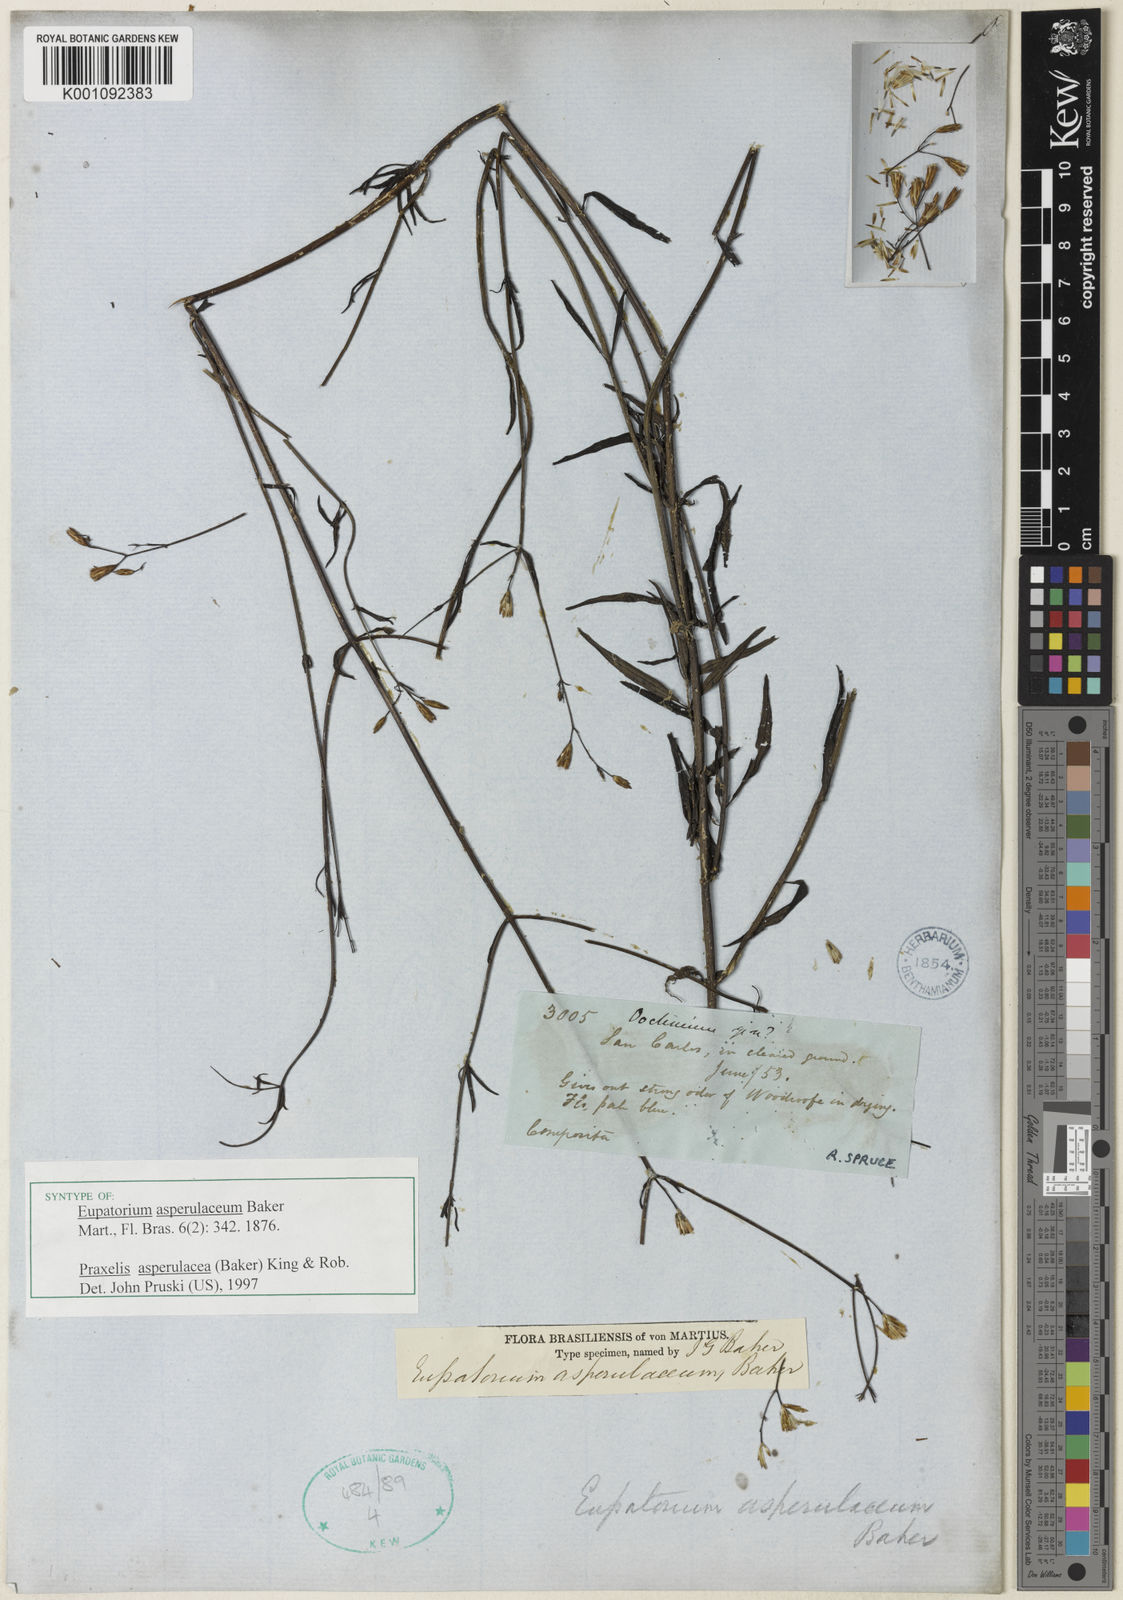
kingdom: Plantae
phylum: Tracheophyta
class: Magnoliopsida
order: Asterales
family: Asteraceae
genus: Praxelis
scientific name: Praxelis asperulacea
